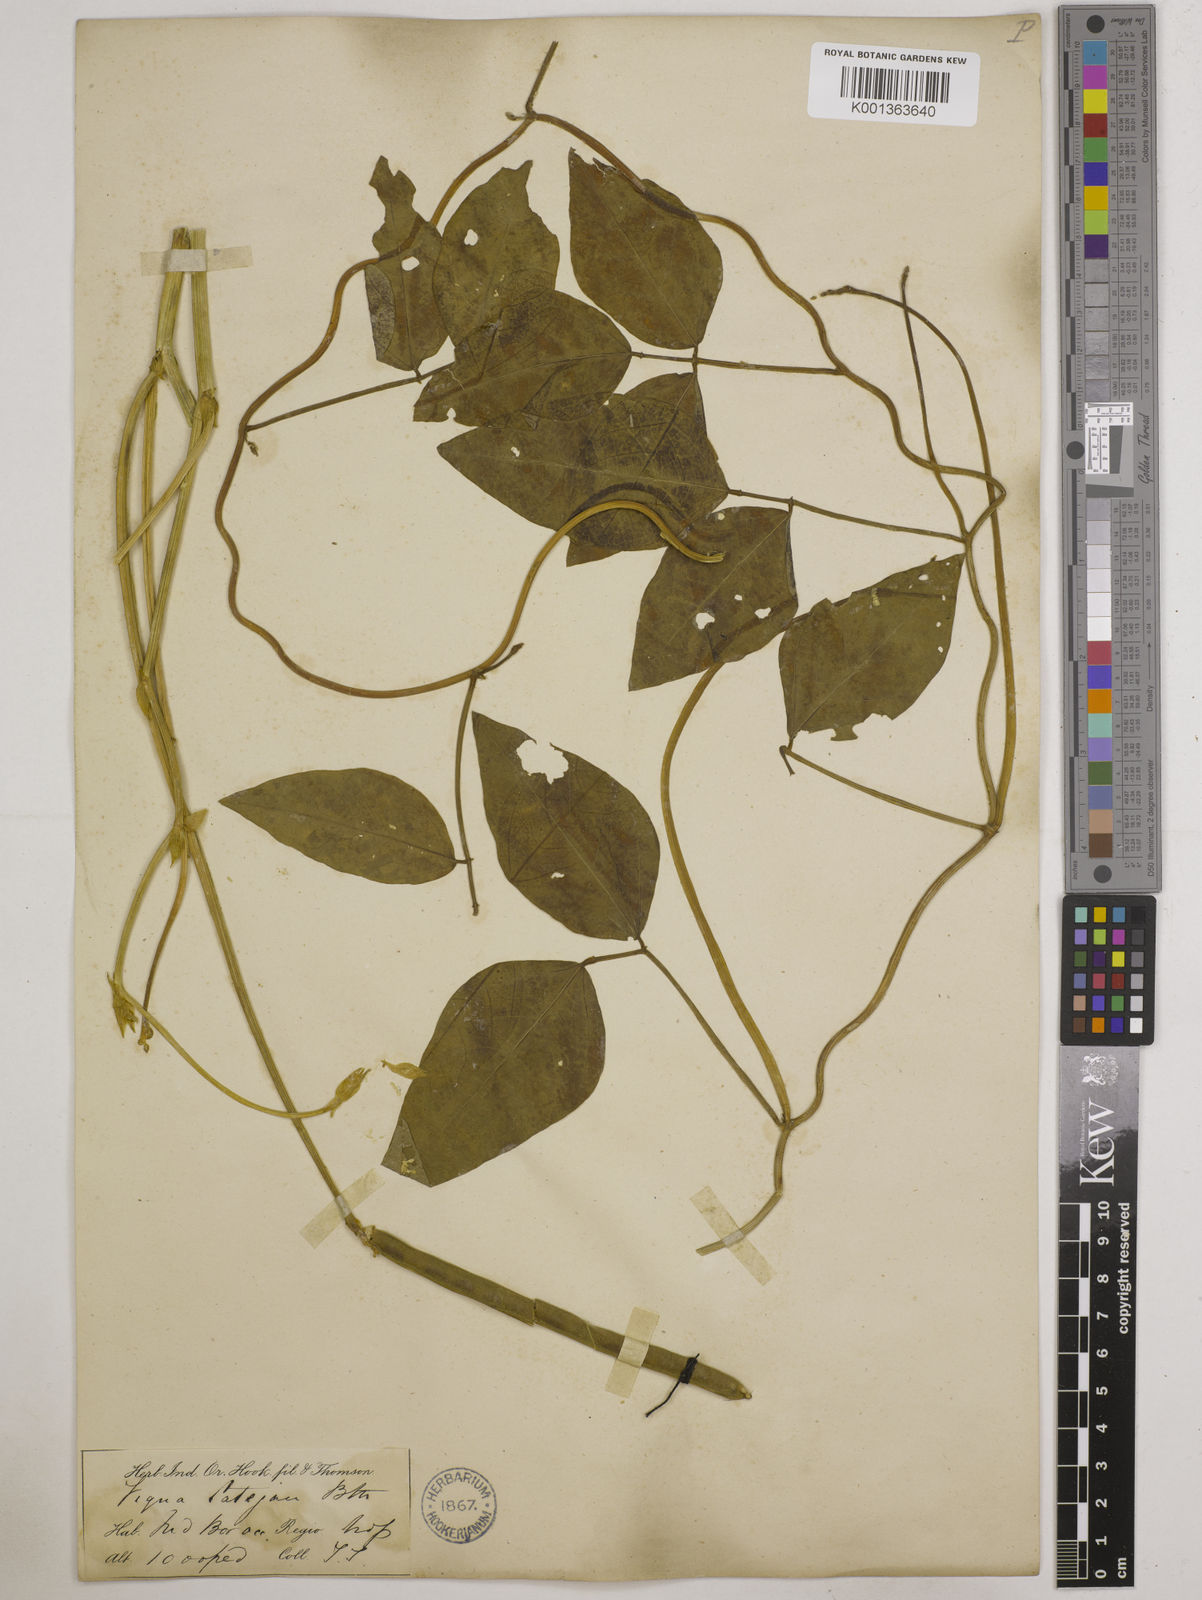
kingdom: Plantae
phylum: Tracheophyta
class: Magnoliopsida
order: Fabales
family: Fabaceae
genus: Vigna
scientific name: Vigna unguiculata
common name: Cowpea
